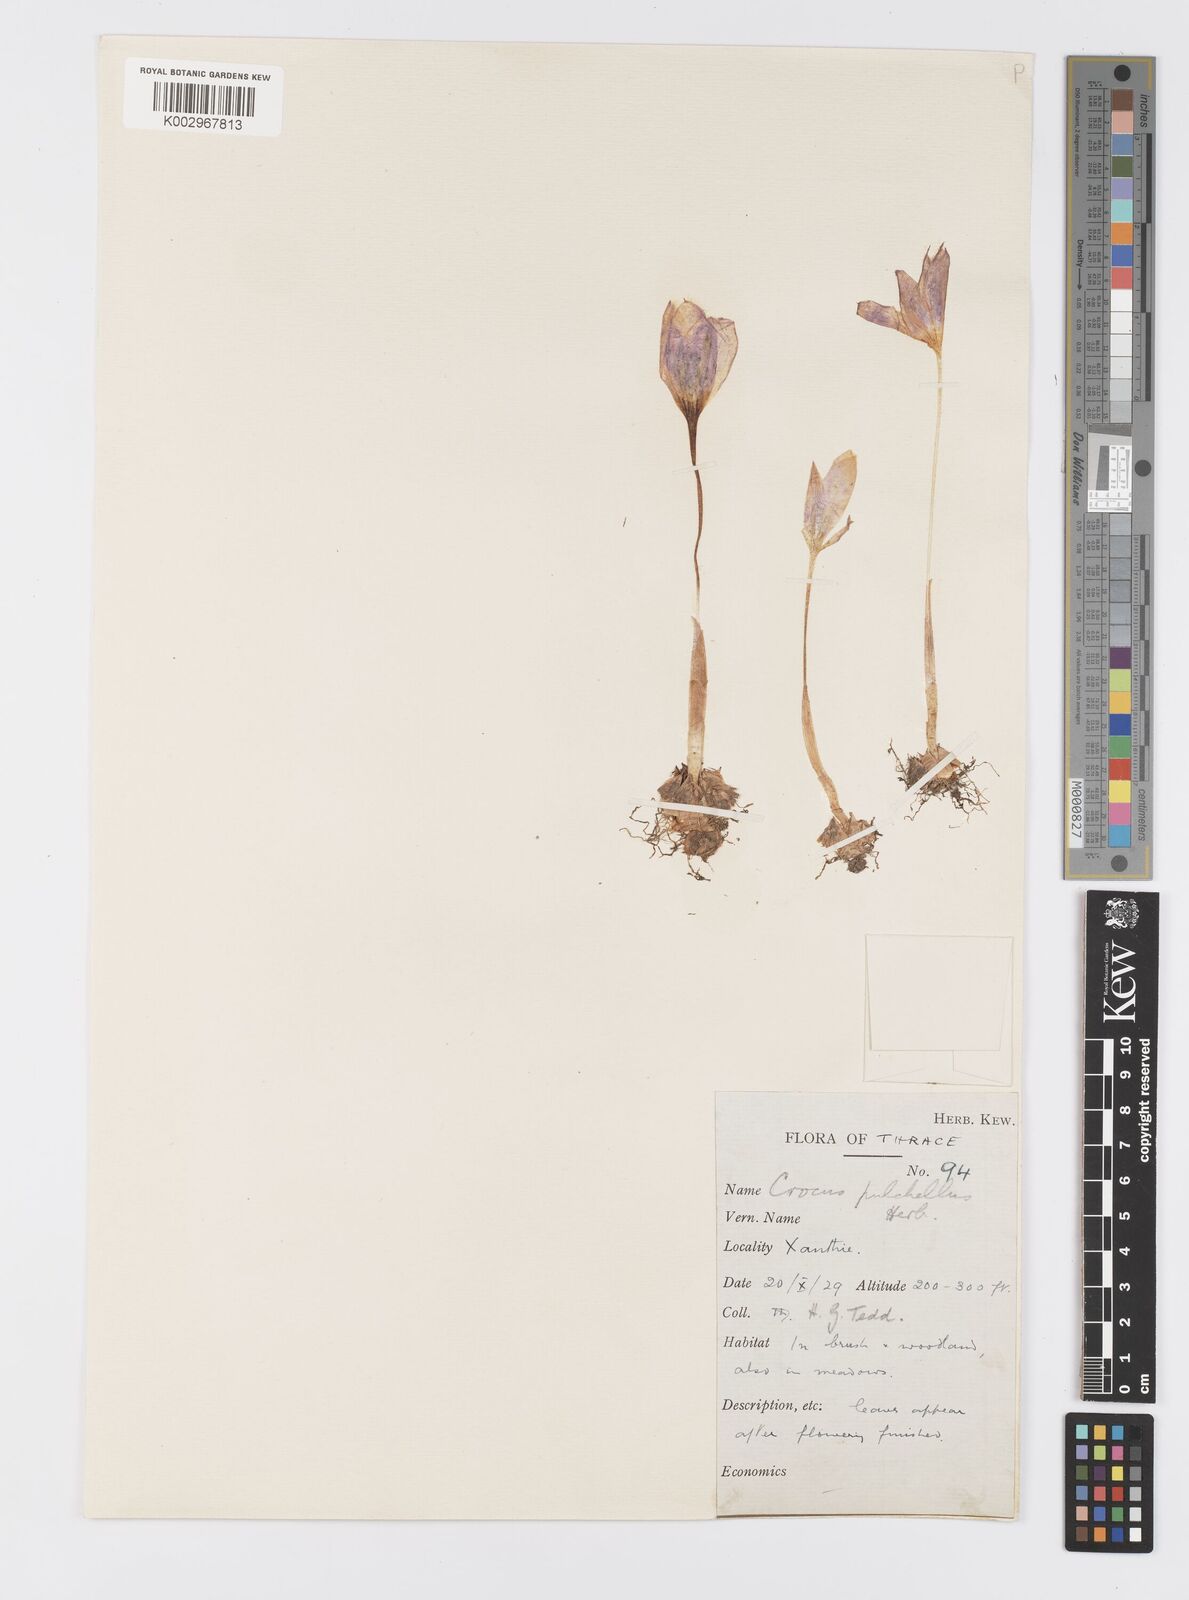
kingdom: Plantae
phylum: Tracheophyta
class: Liliopsida
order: Asparagales
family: Iridaceae
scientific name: Iridaceae
